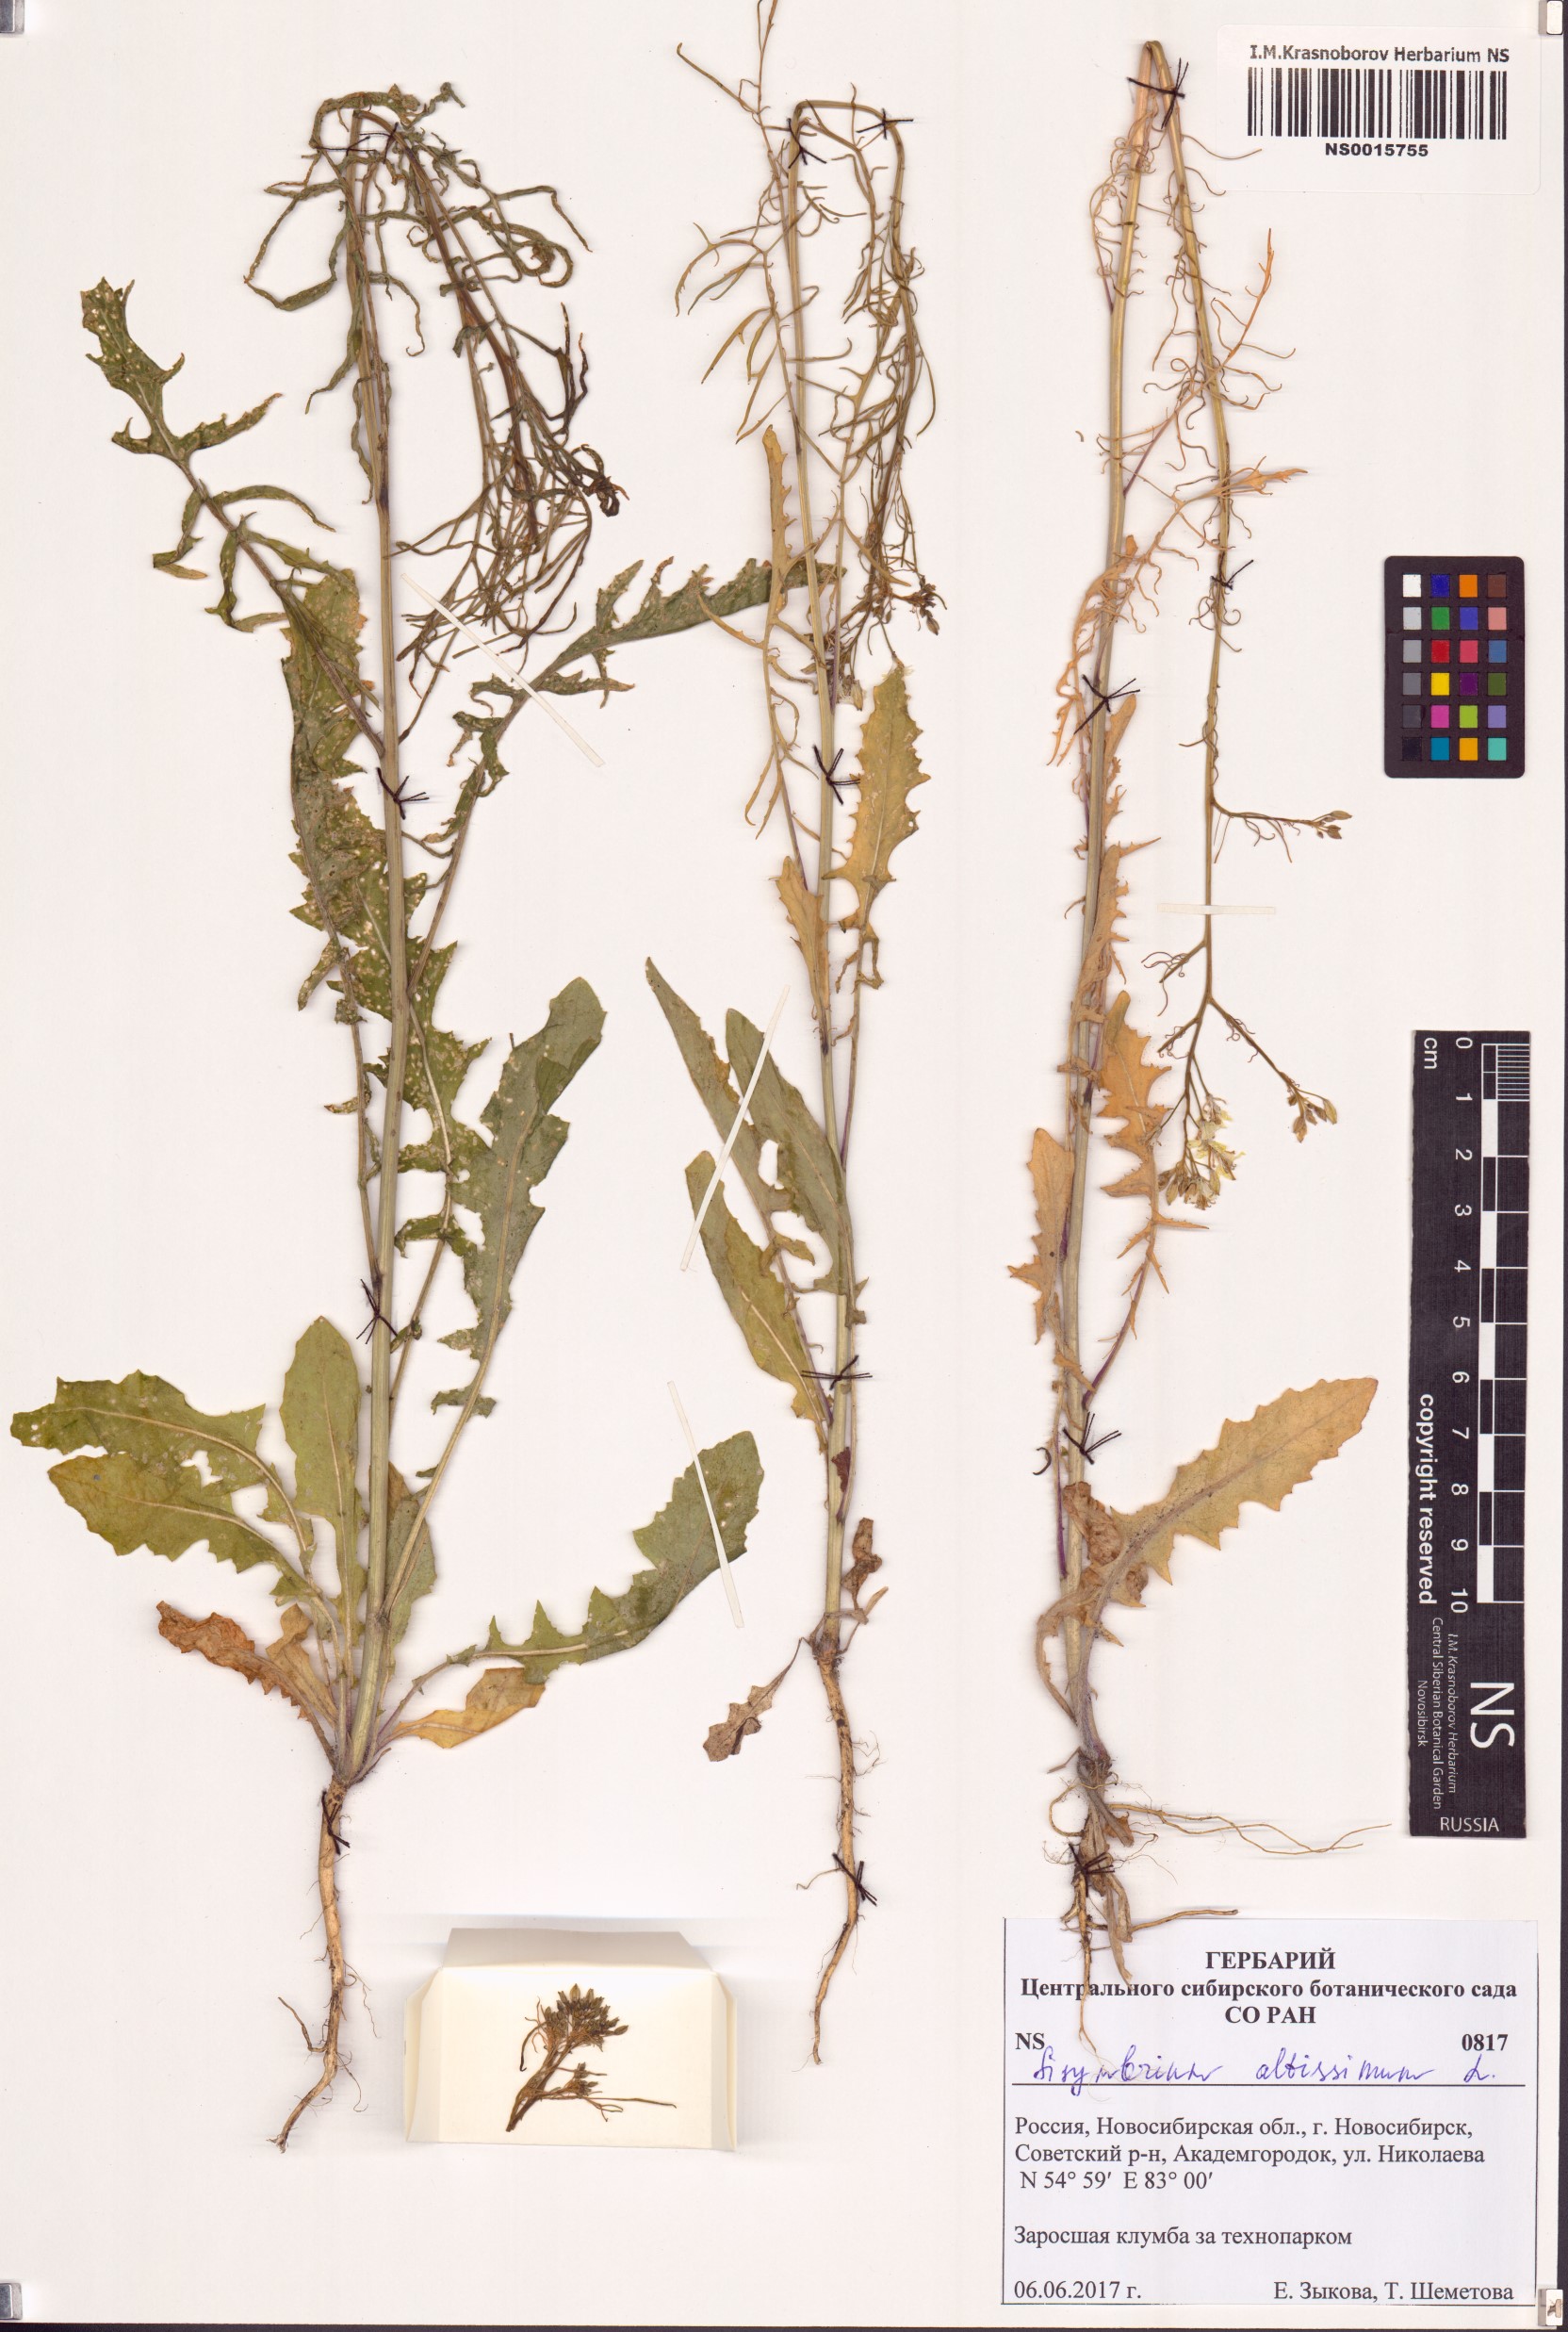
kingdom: Plantae
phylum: Tracheophyta
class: Magnoliopsida
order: Brassicales
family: Brassicaceae
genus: Sisymbrium
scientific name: Sisymbrium altissimum
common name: Tall rocket
